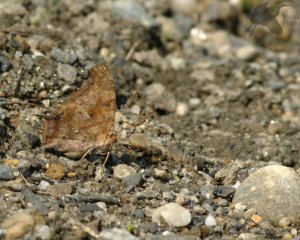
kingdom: Animalia
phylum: Arthropoda
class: Insecta
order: Lepidoptera
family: Nymphalidae
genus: Polygonia
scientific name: Polygonia interrogationis
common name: Question Mark
